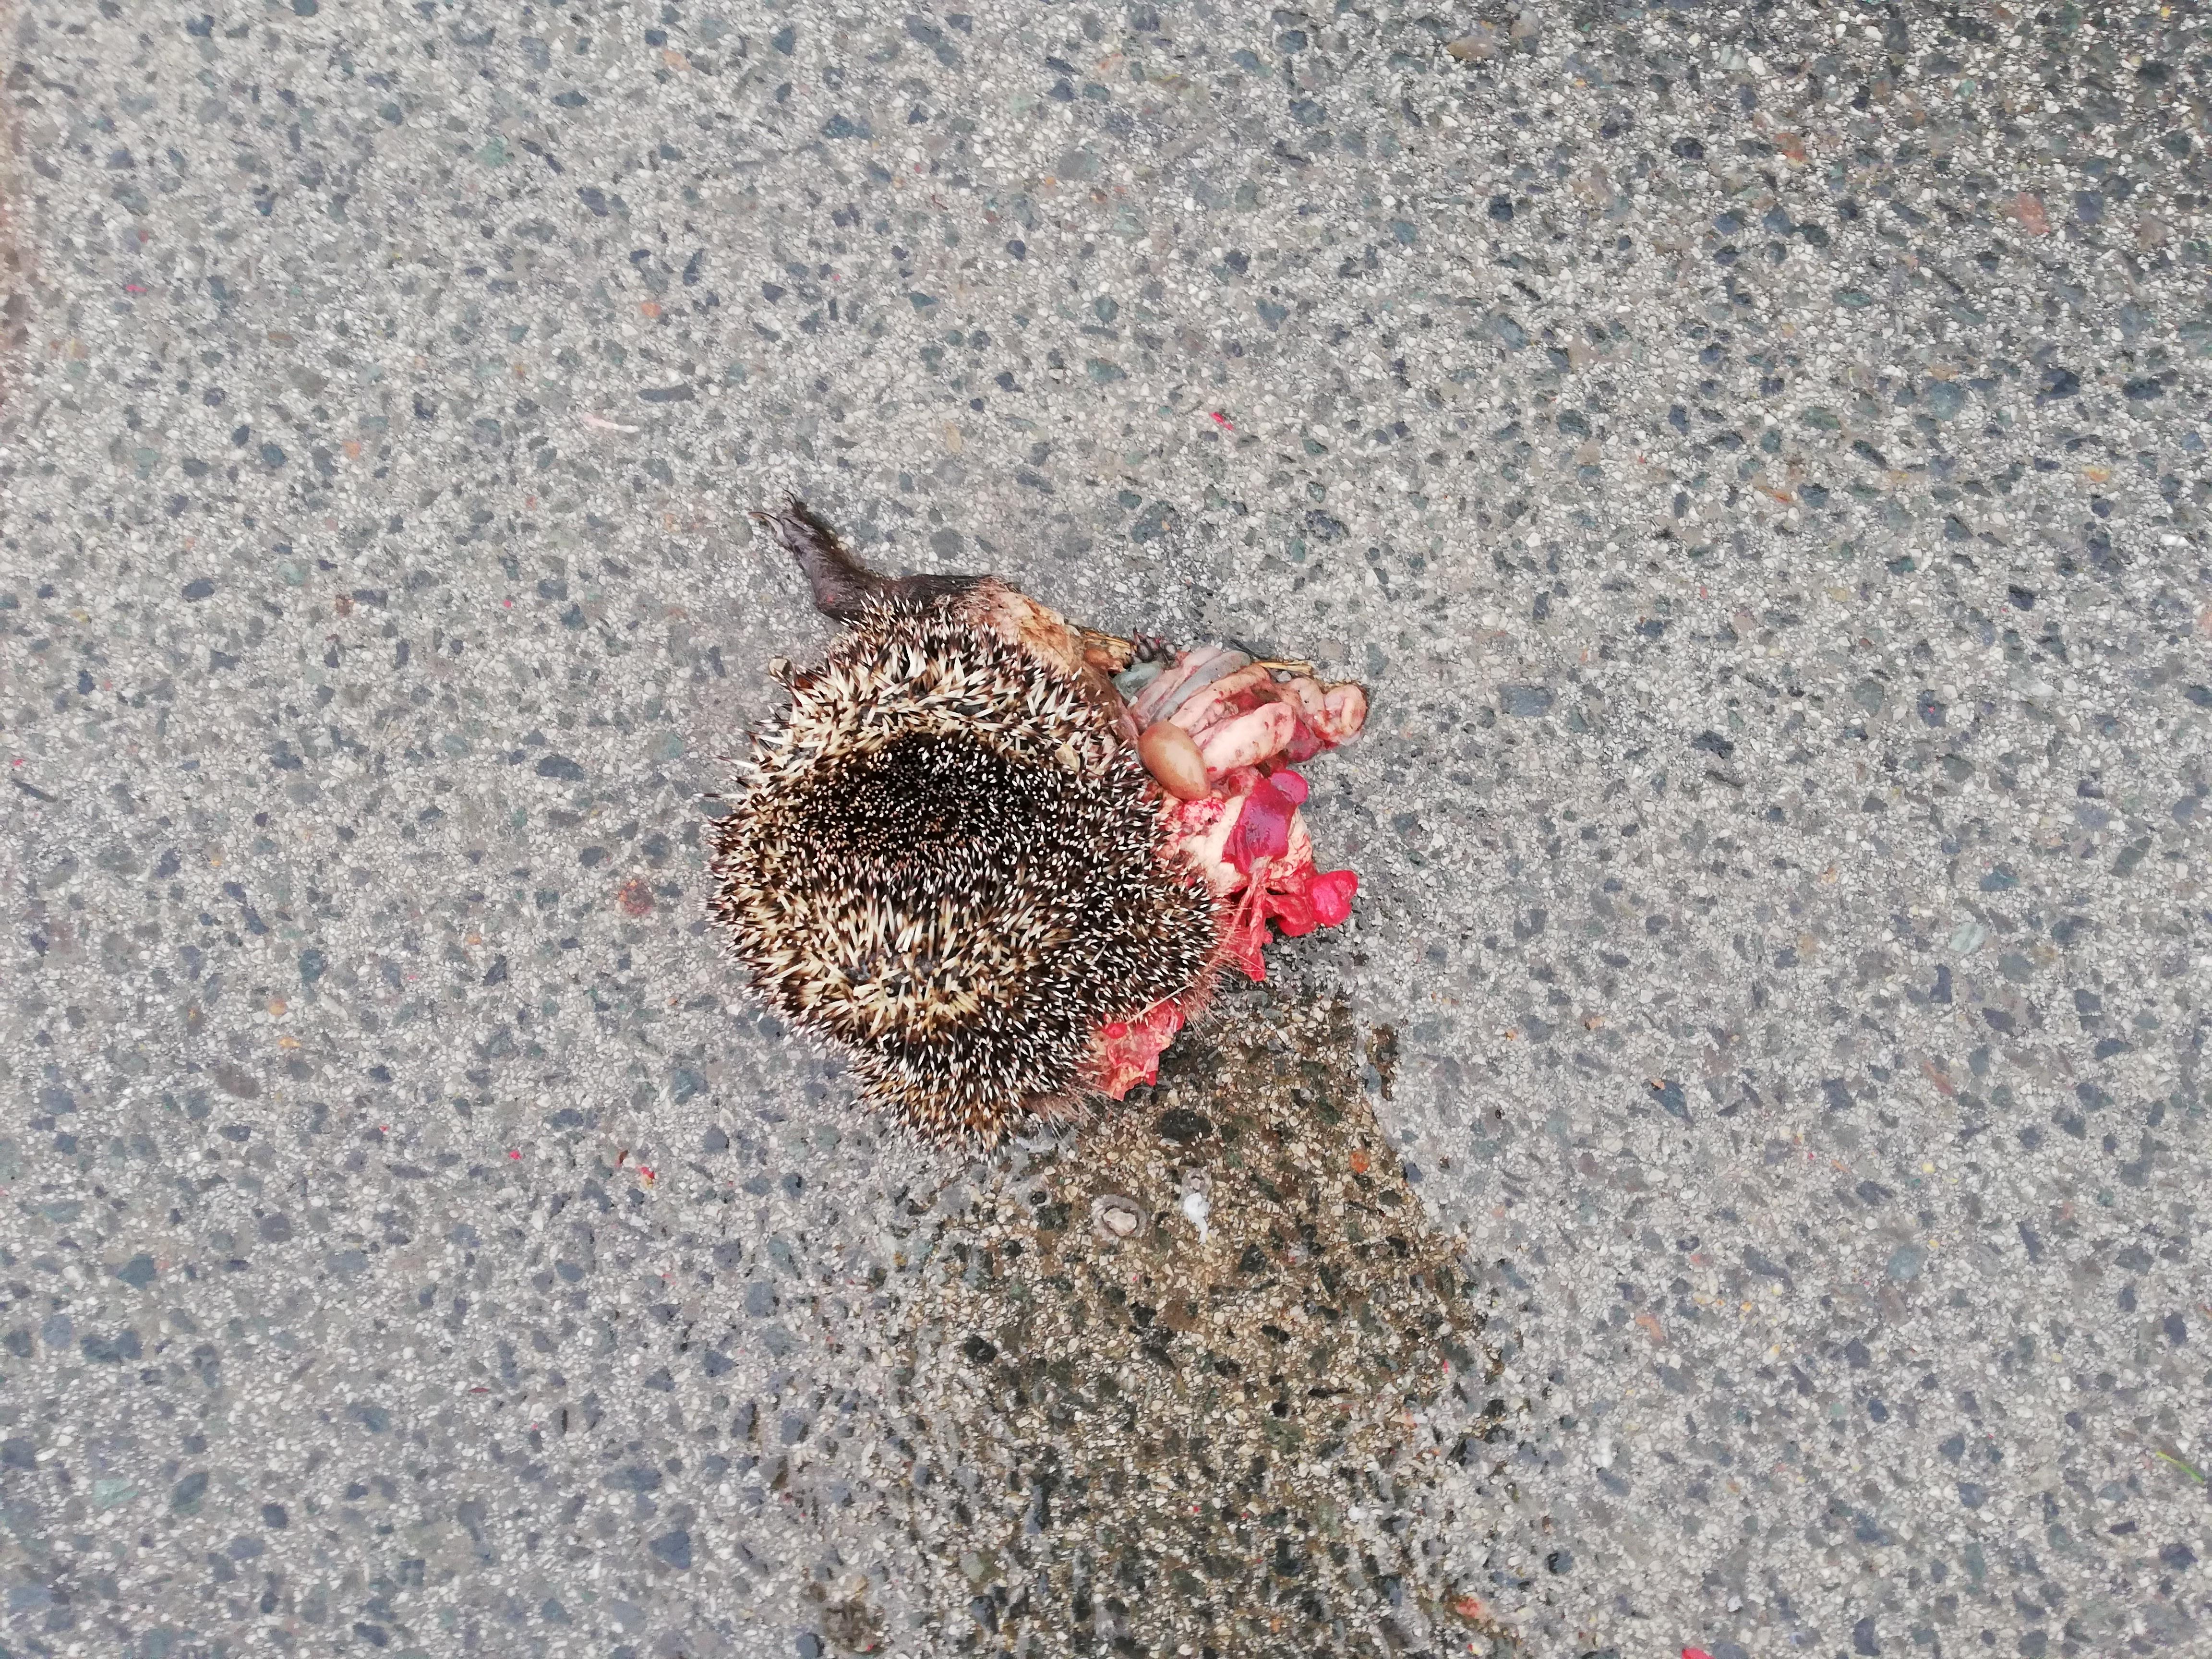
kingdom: Animalia
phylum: Chordata
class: Mammalia
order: Erinaceomorpha
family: Erinaceidae
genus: Erinaceus
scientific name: Erinaceus
